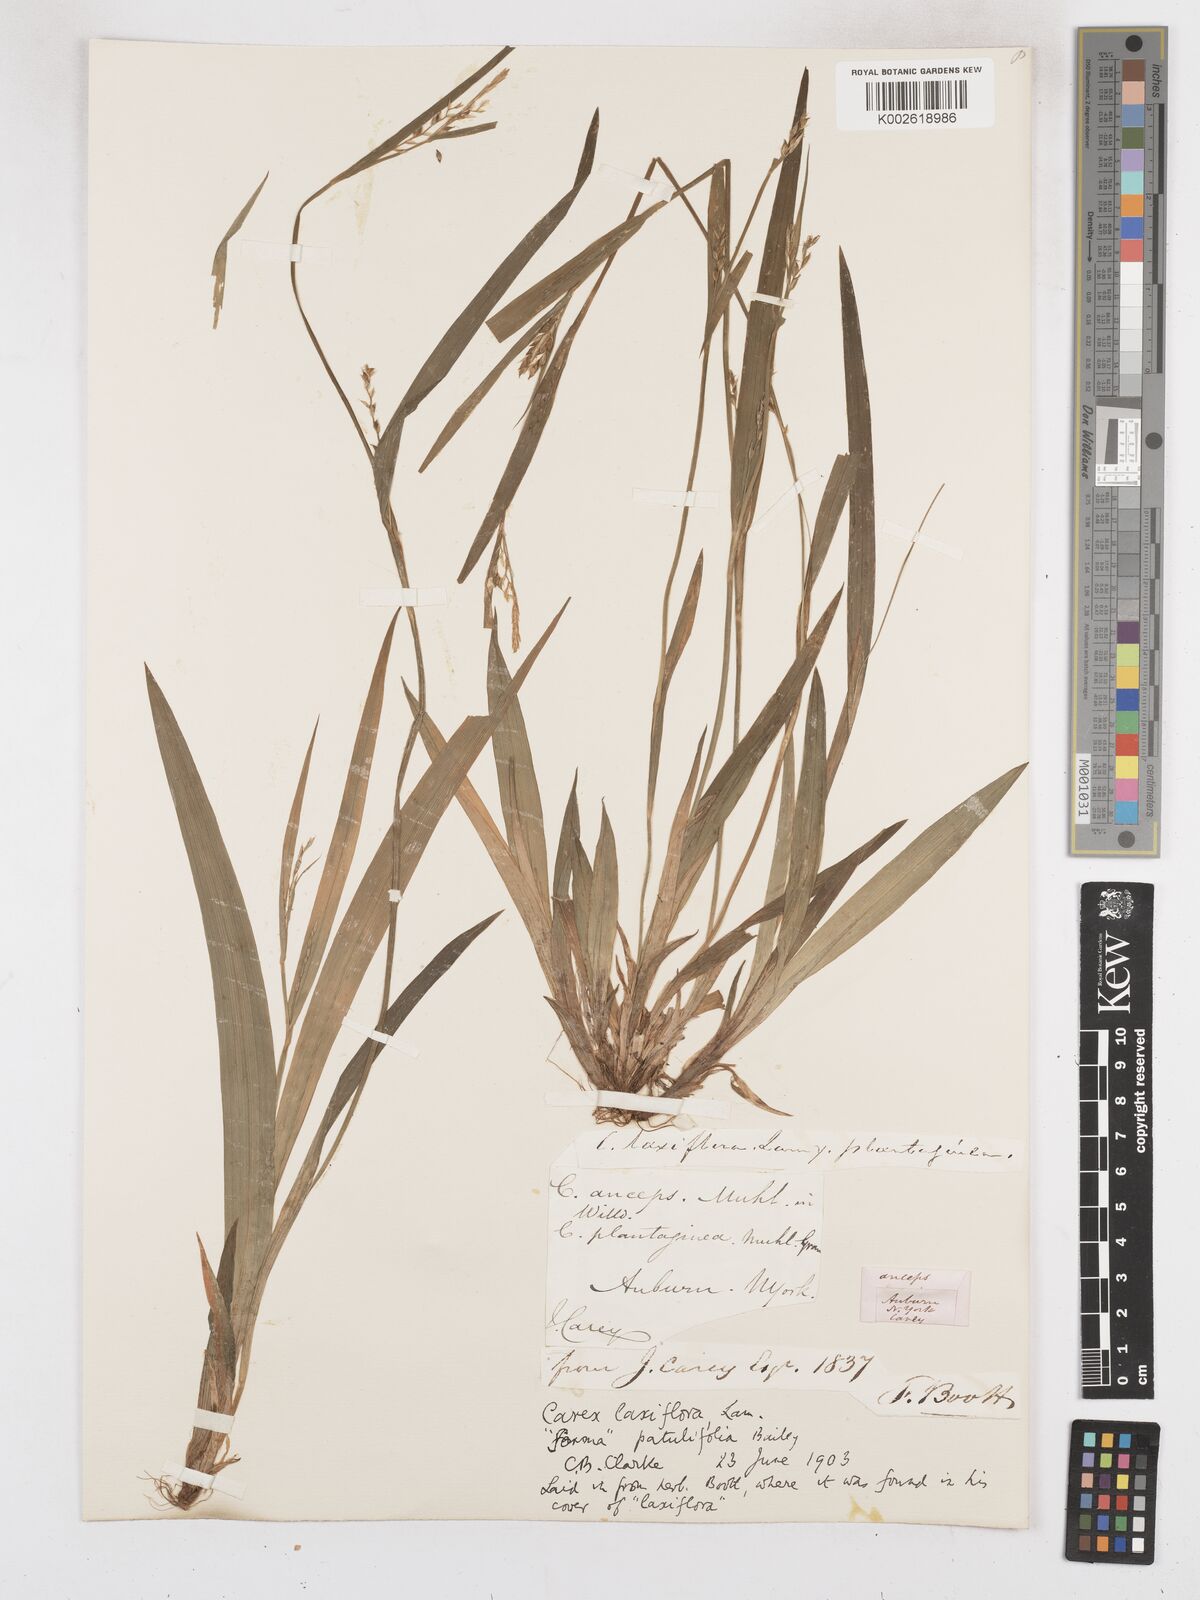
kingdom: Plantae
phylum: Tracheophyta
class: Liliopsida
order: Poales
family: Cyperaceae
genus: Carex
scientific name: Carex striatula
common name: Lined sedge
